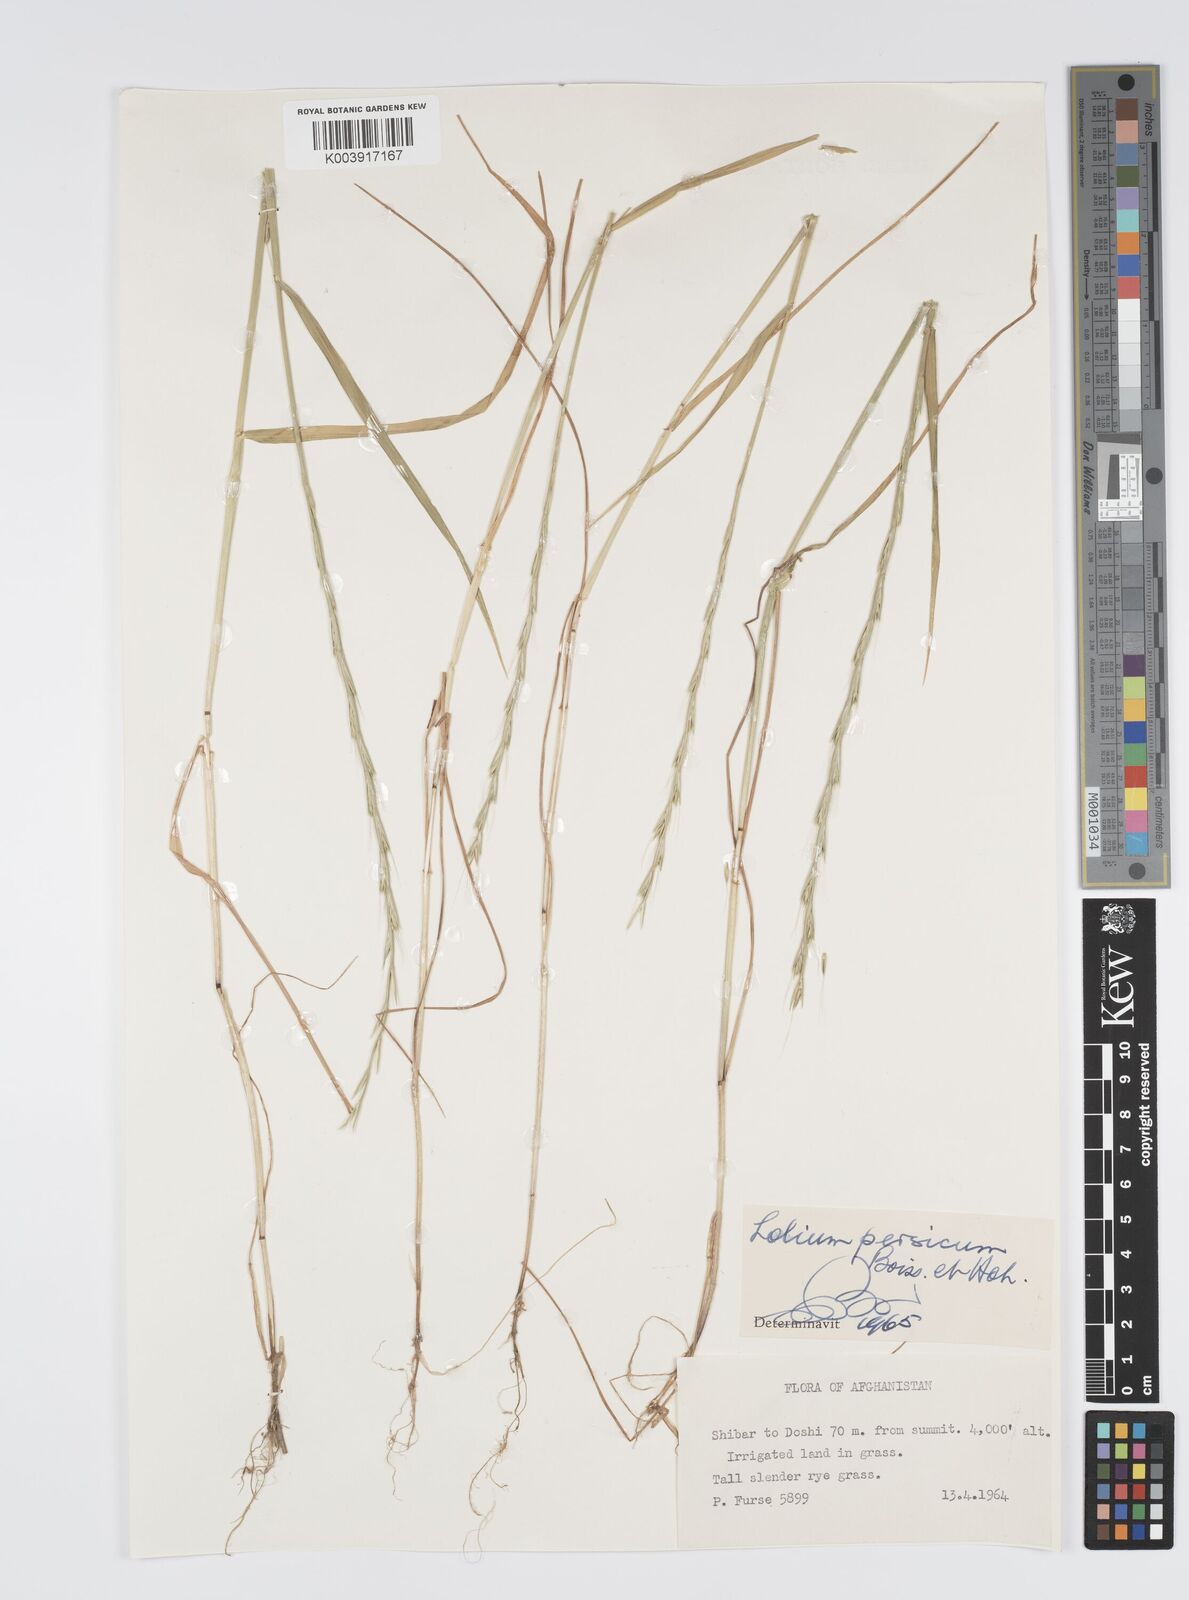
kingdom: Plantae
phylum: Tracheophyta
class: Liliopsida
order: Poales
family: Poaceae
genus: Lolium
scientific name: Lolium persicum
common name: Persian ryegrass
